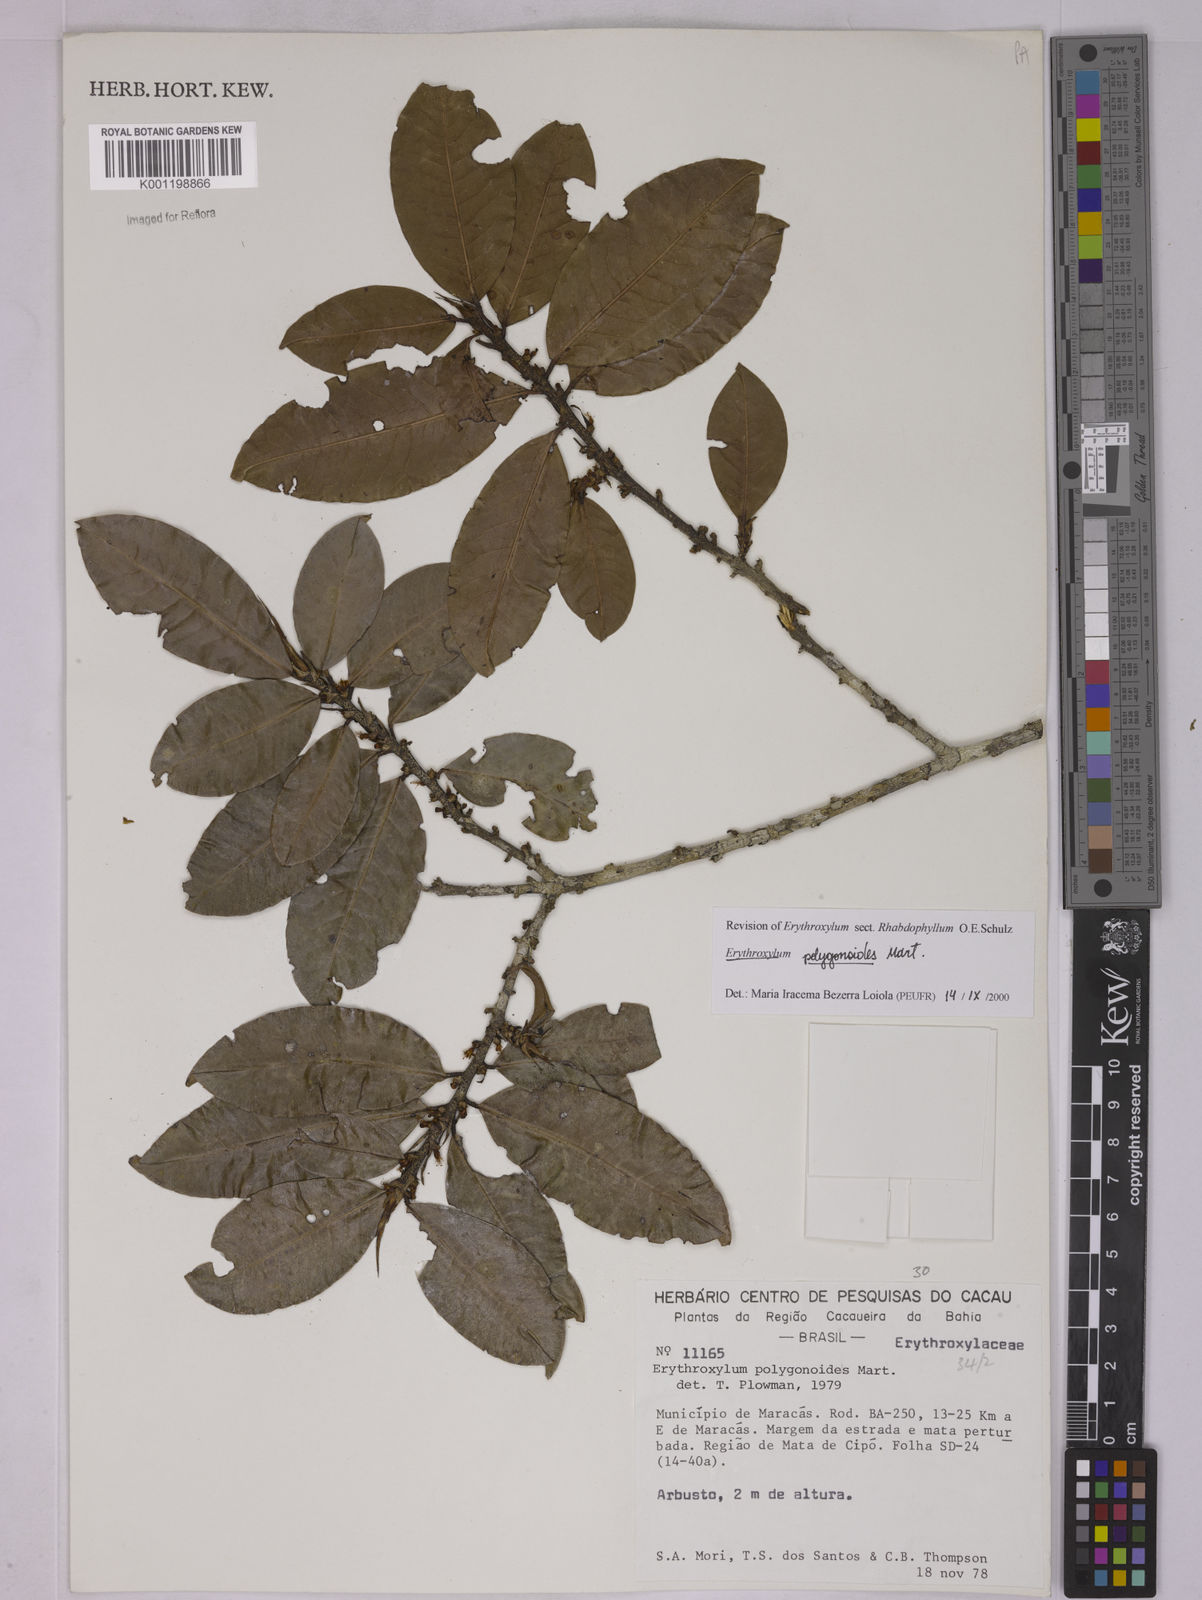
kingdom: Plantae
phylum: Tracheophyta
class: Magnoliopsida
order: Malpighiales
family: Erythroxylaceae
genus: Erythroxylum
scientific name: Erythroxylum polygonoides
